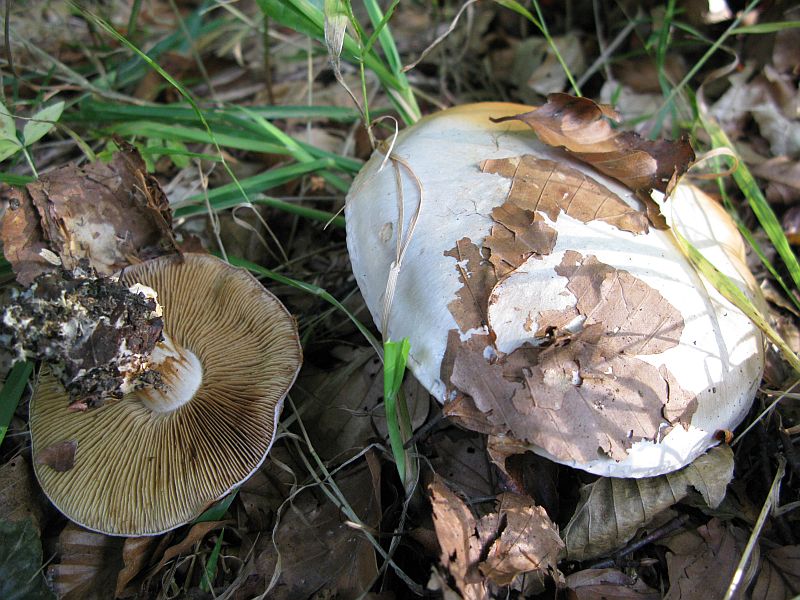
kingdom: Fungi
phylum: Basidiomycota
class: Agaricomycetes
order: Agaricales
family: Cortinariaceae
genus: Calonarius
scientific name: Calonarius rufo-olivaceus
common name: firefarvet slørhat
